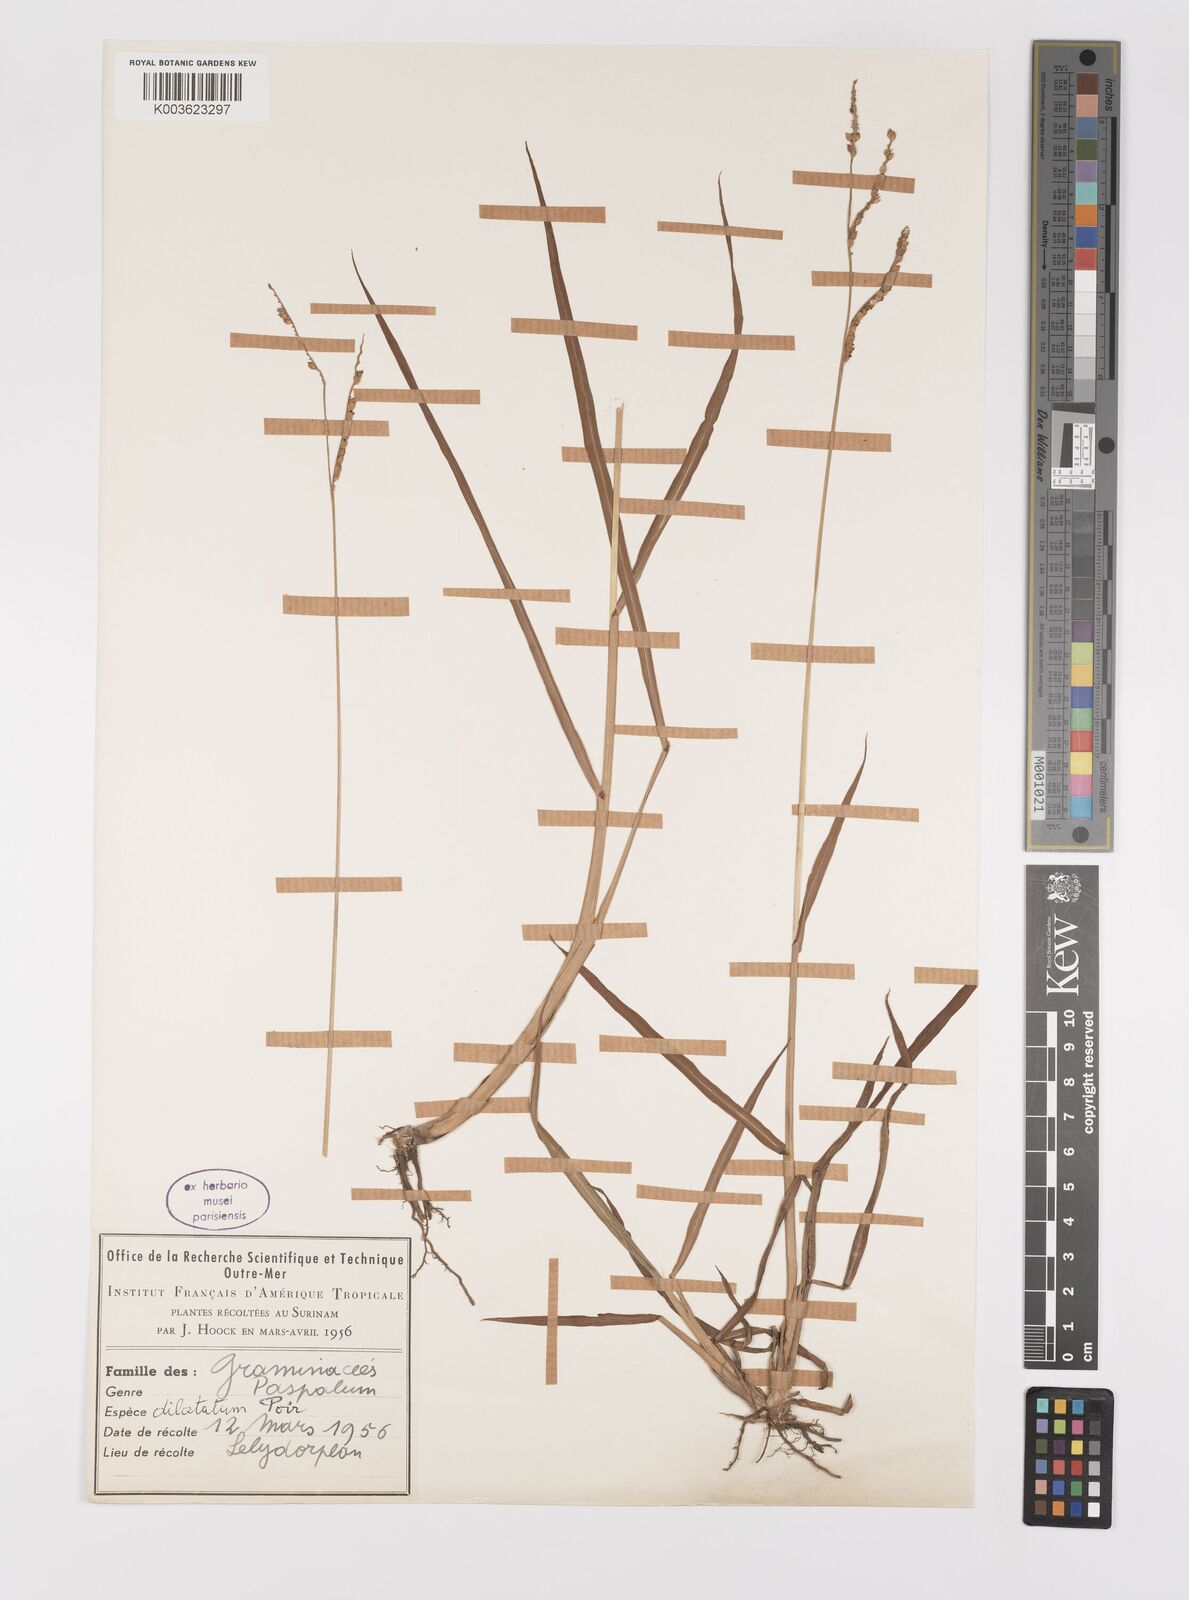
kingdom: Plantae
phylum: Tracheophyta
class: Liliopsida
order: Poales
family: Poaceae
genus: Paspalum
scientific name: Paspalum dilatatum
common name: Dallisgrass
